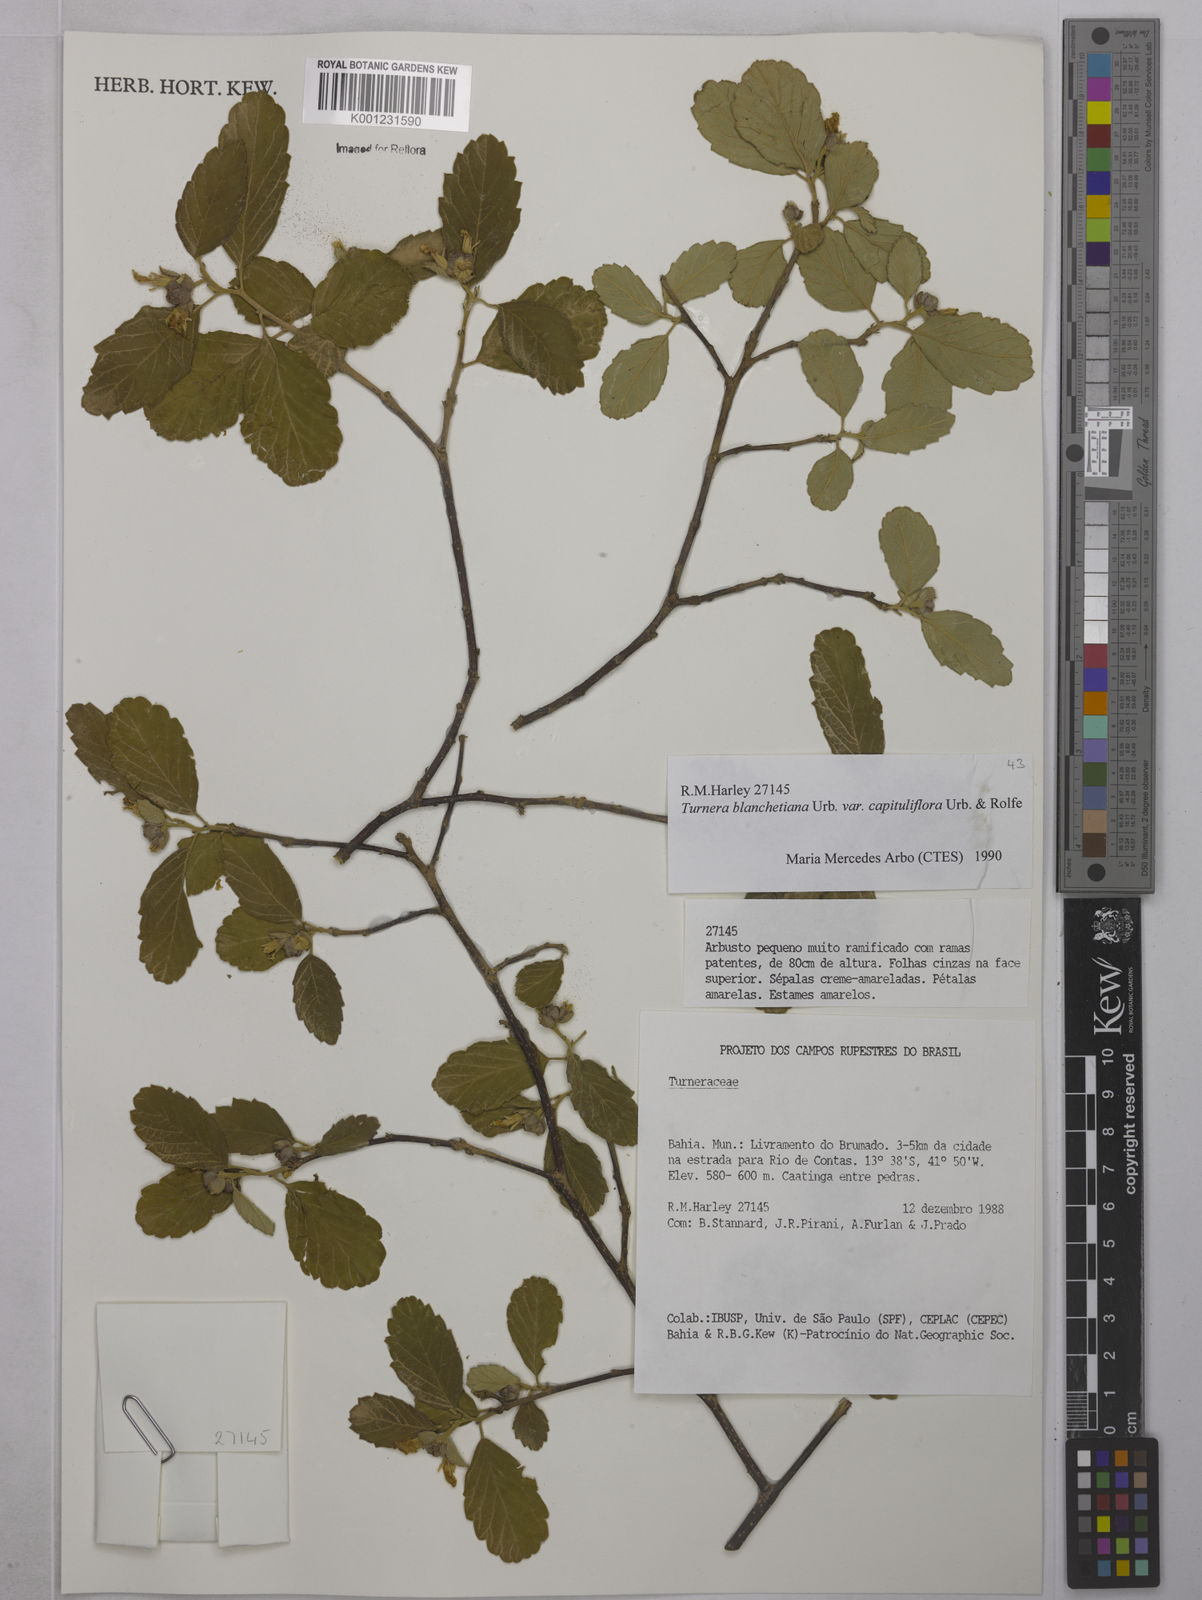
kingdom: Plantae
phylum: Tracheophyta
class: Magnoliopsida
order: Malpighiales
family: Turneraceae
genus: Turnera
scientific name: Turnera blanchetiana
